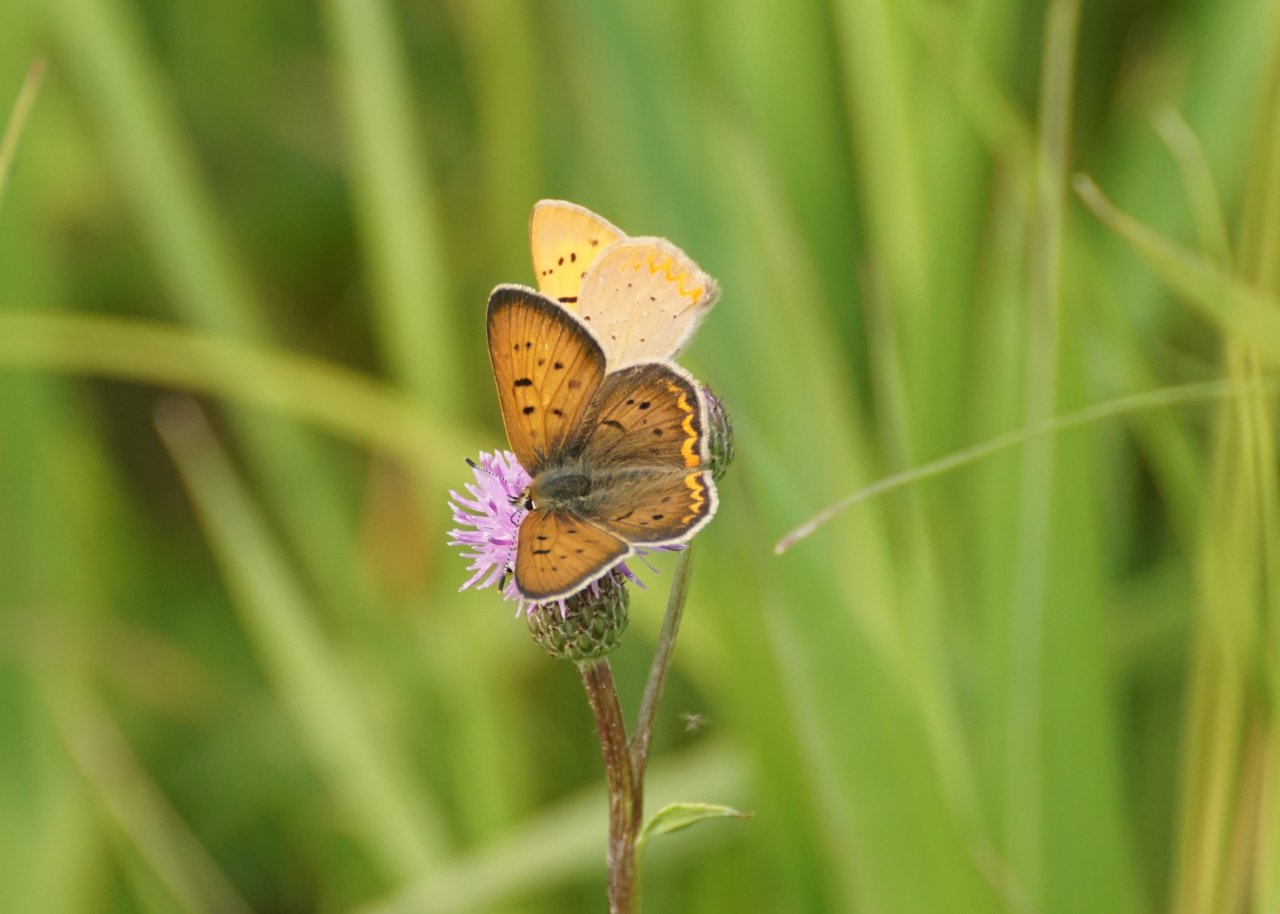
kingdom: Animalia
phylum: Arthropoda
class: Insecta
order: Lepidoptera
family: Sesiidae
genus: Sesia
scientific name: Sesia Lycaena helloides
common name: Purplish Copper
